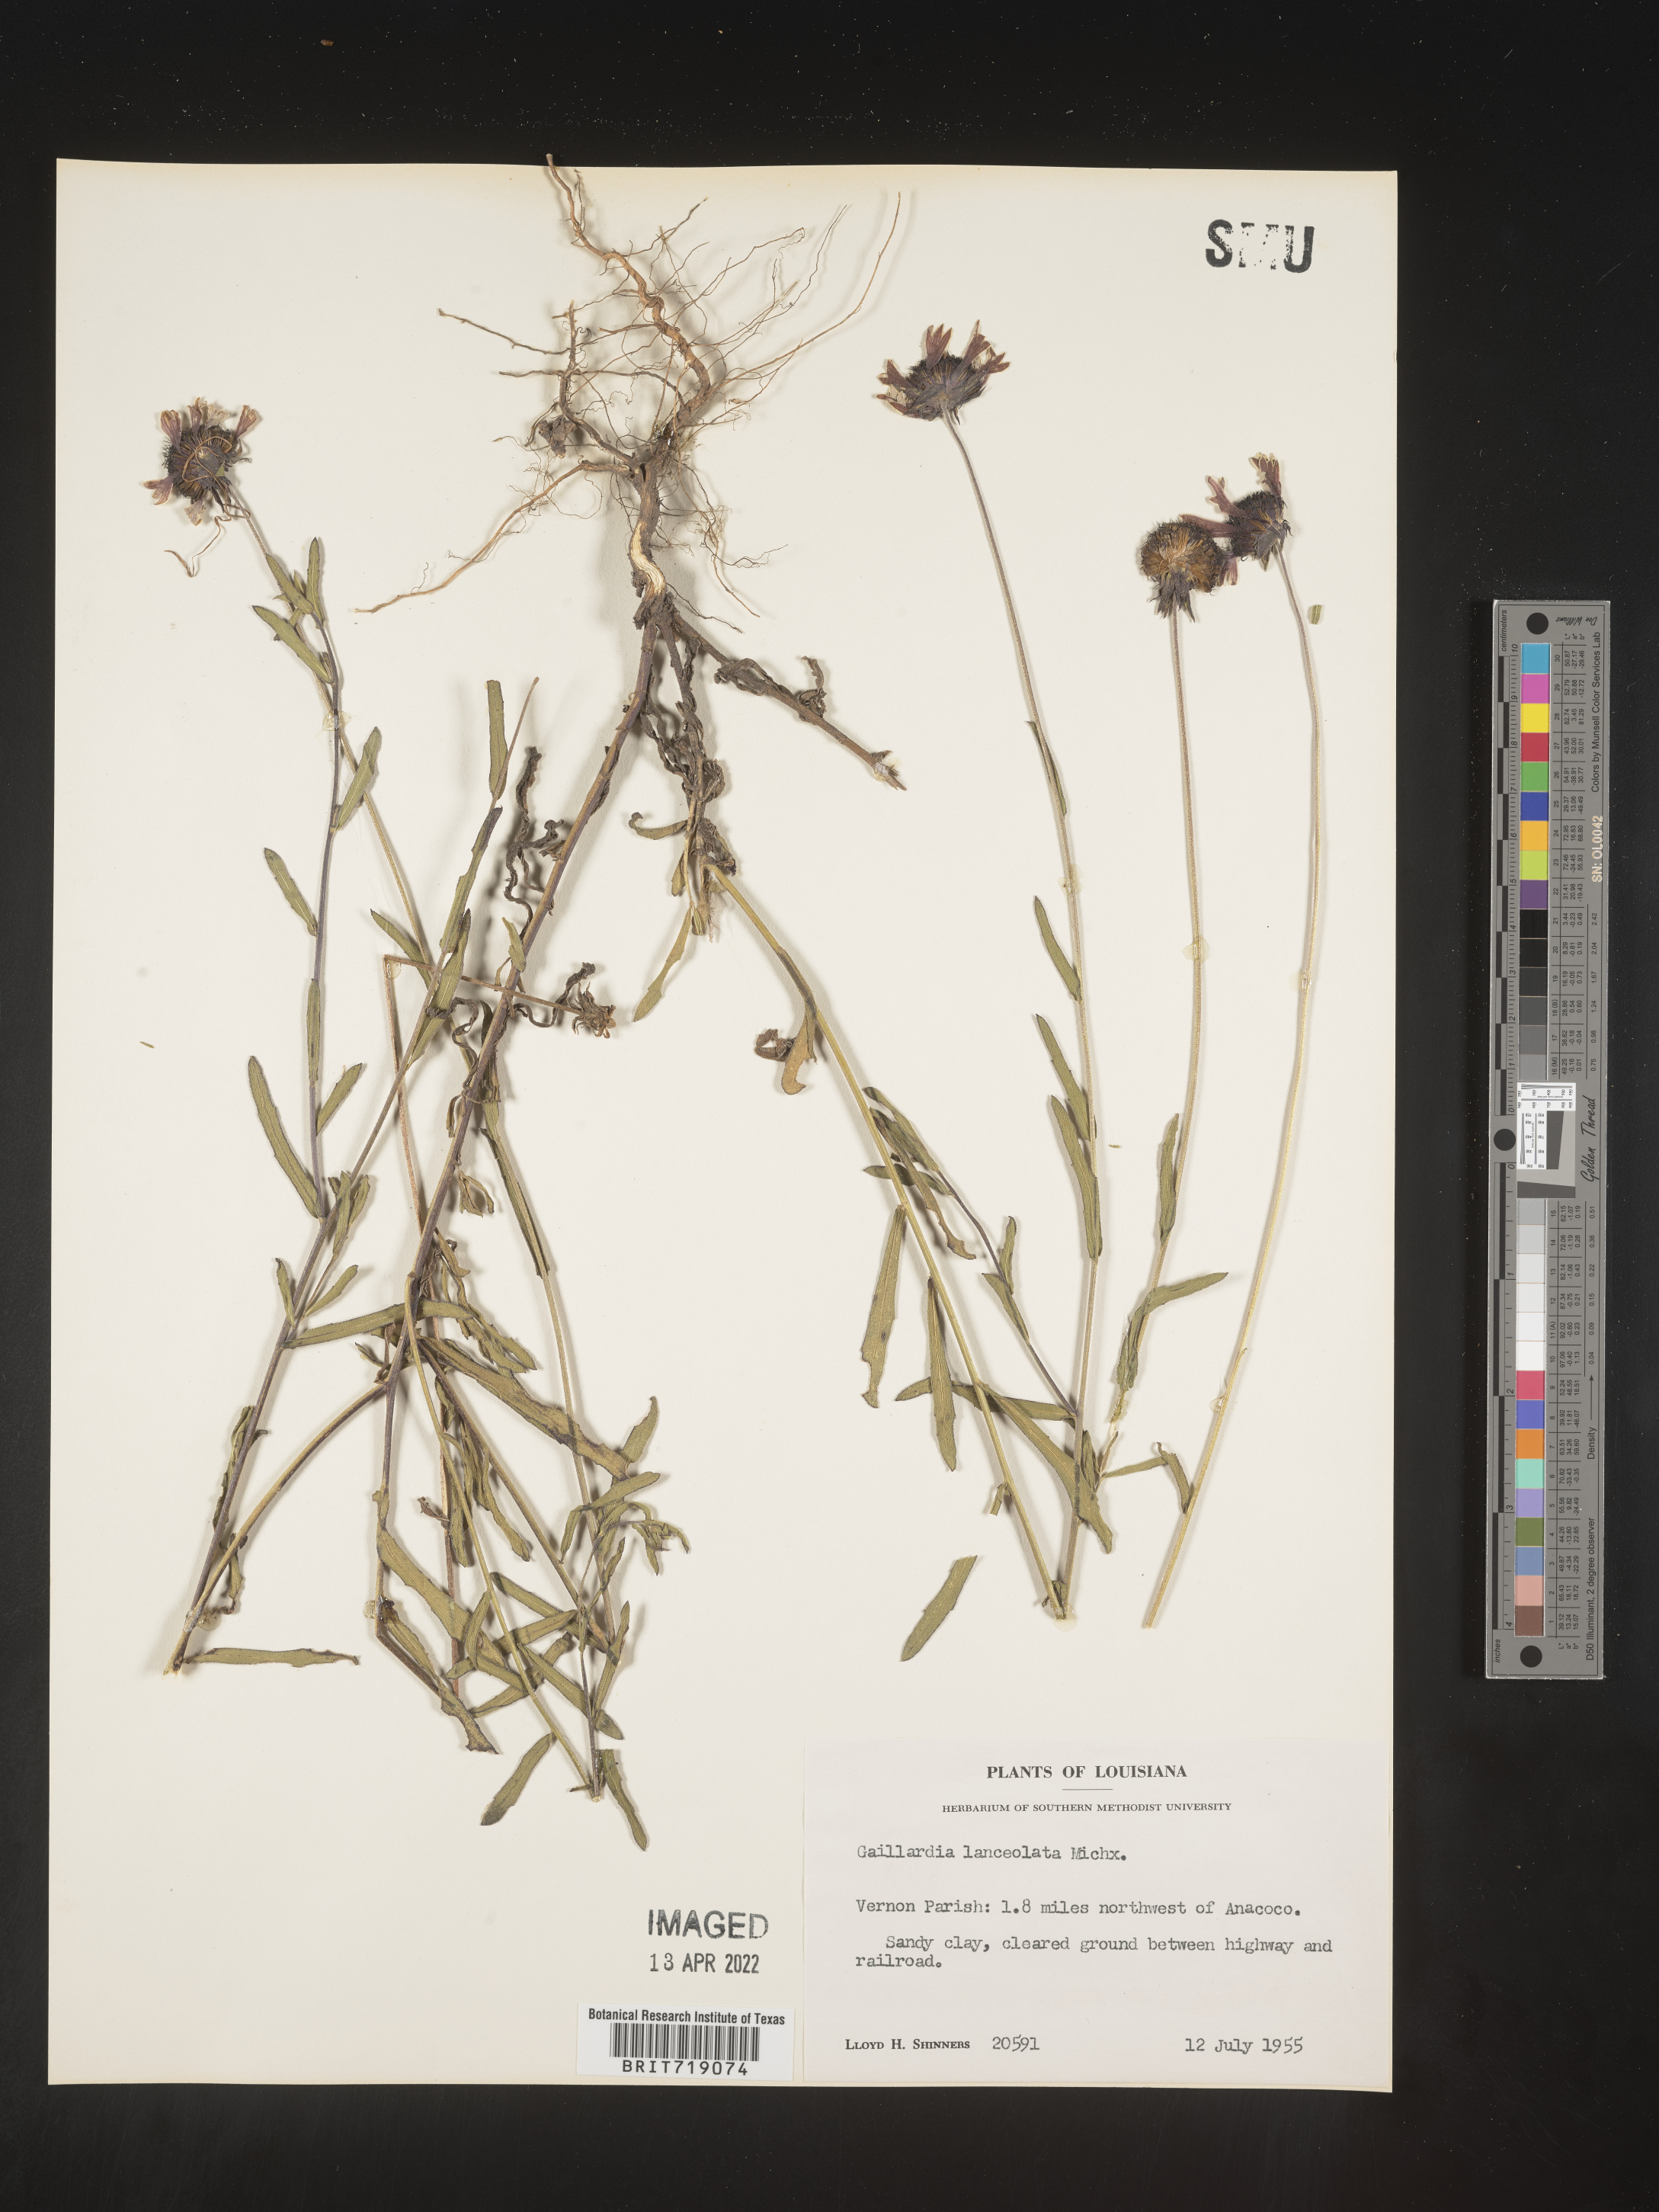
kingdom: Plantae
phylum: Tracheophyta
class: Magnoliopsida
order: Asterales
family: Asteraceae
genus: Gaillardia
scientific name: Gaillardia aestivalis
